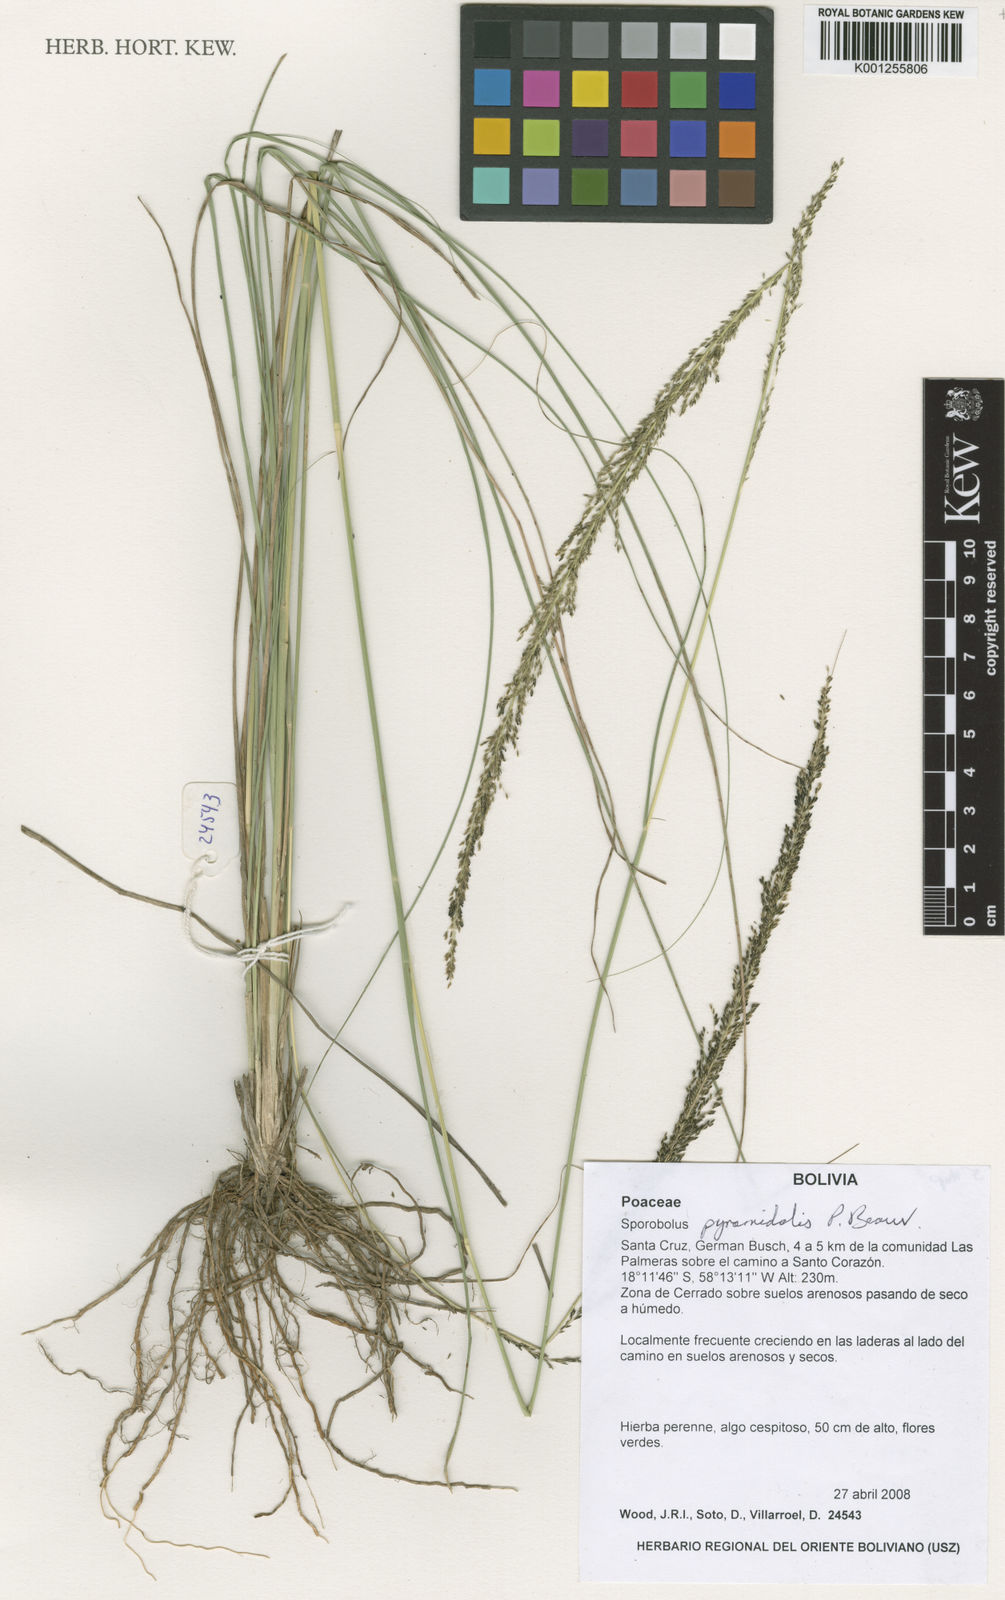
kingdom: Plantae
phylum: Tracheophyta
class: Liliopsida
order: Poales
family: Poaceae
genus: Sporobolus
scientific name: Sporobolus pyramidalis
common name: West indian dropseed
